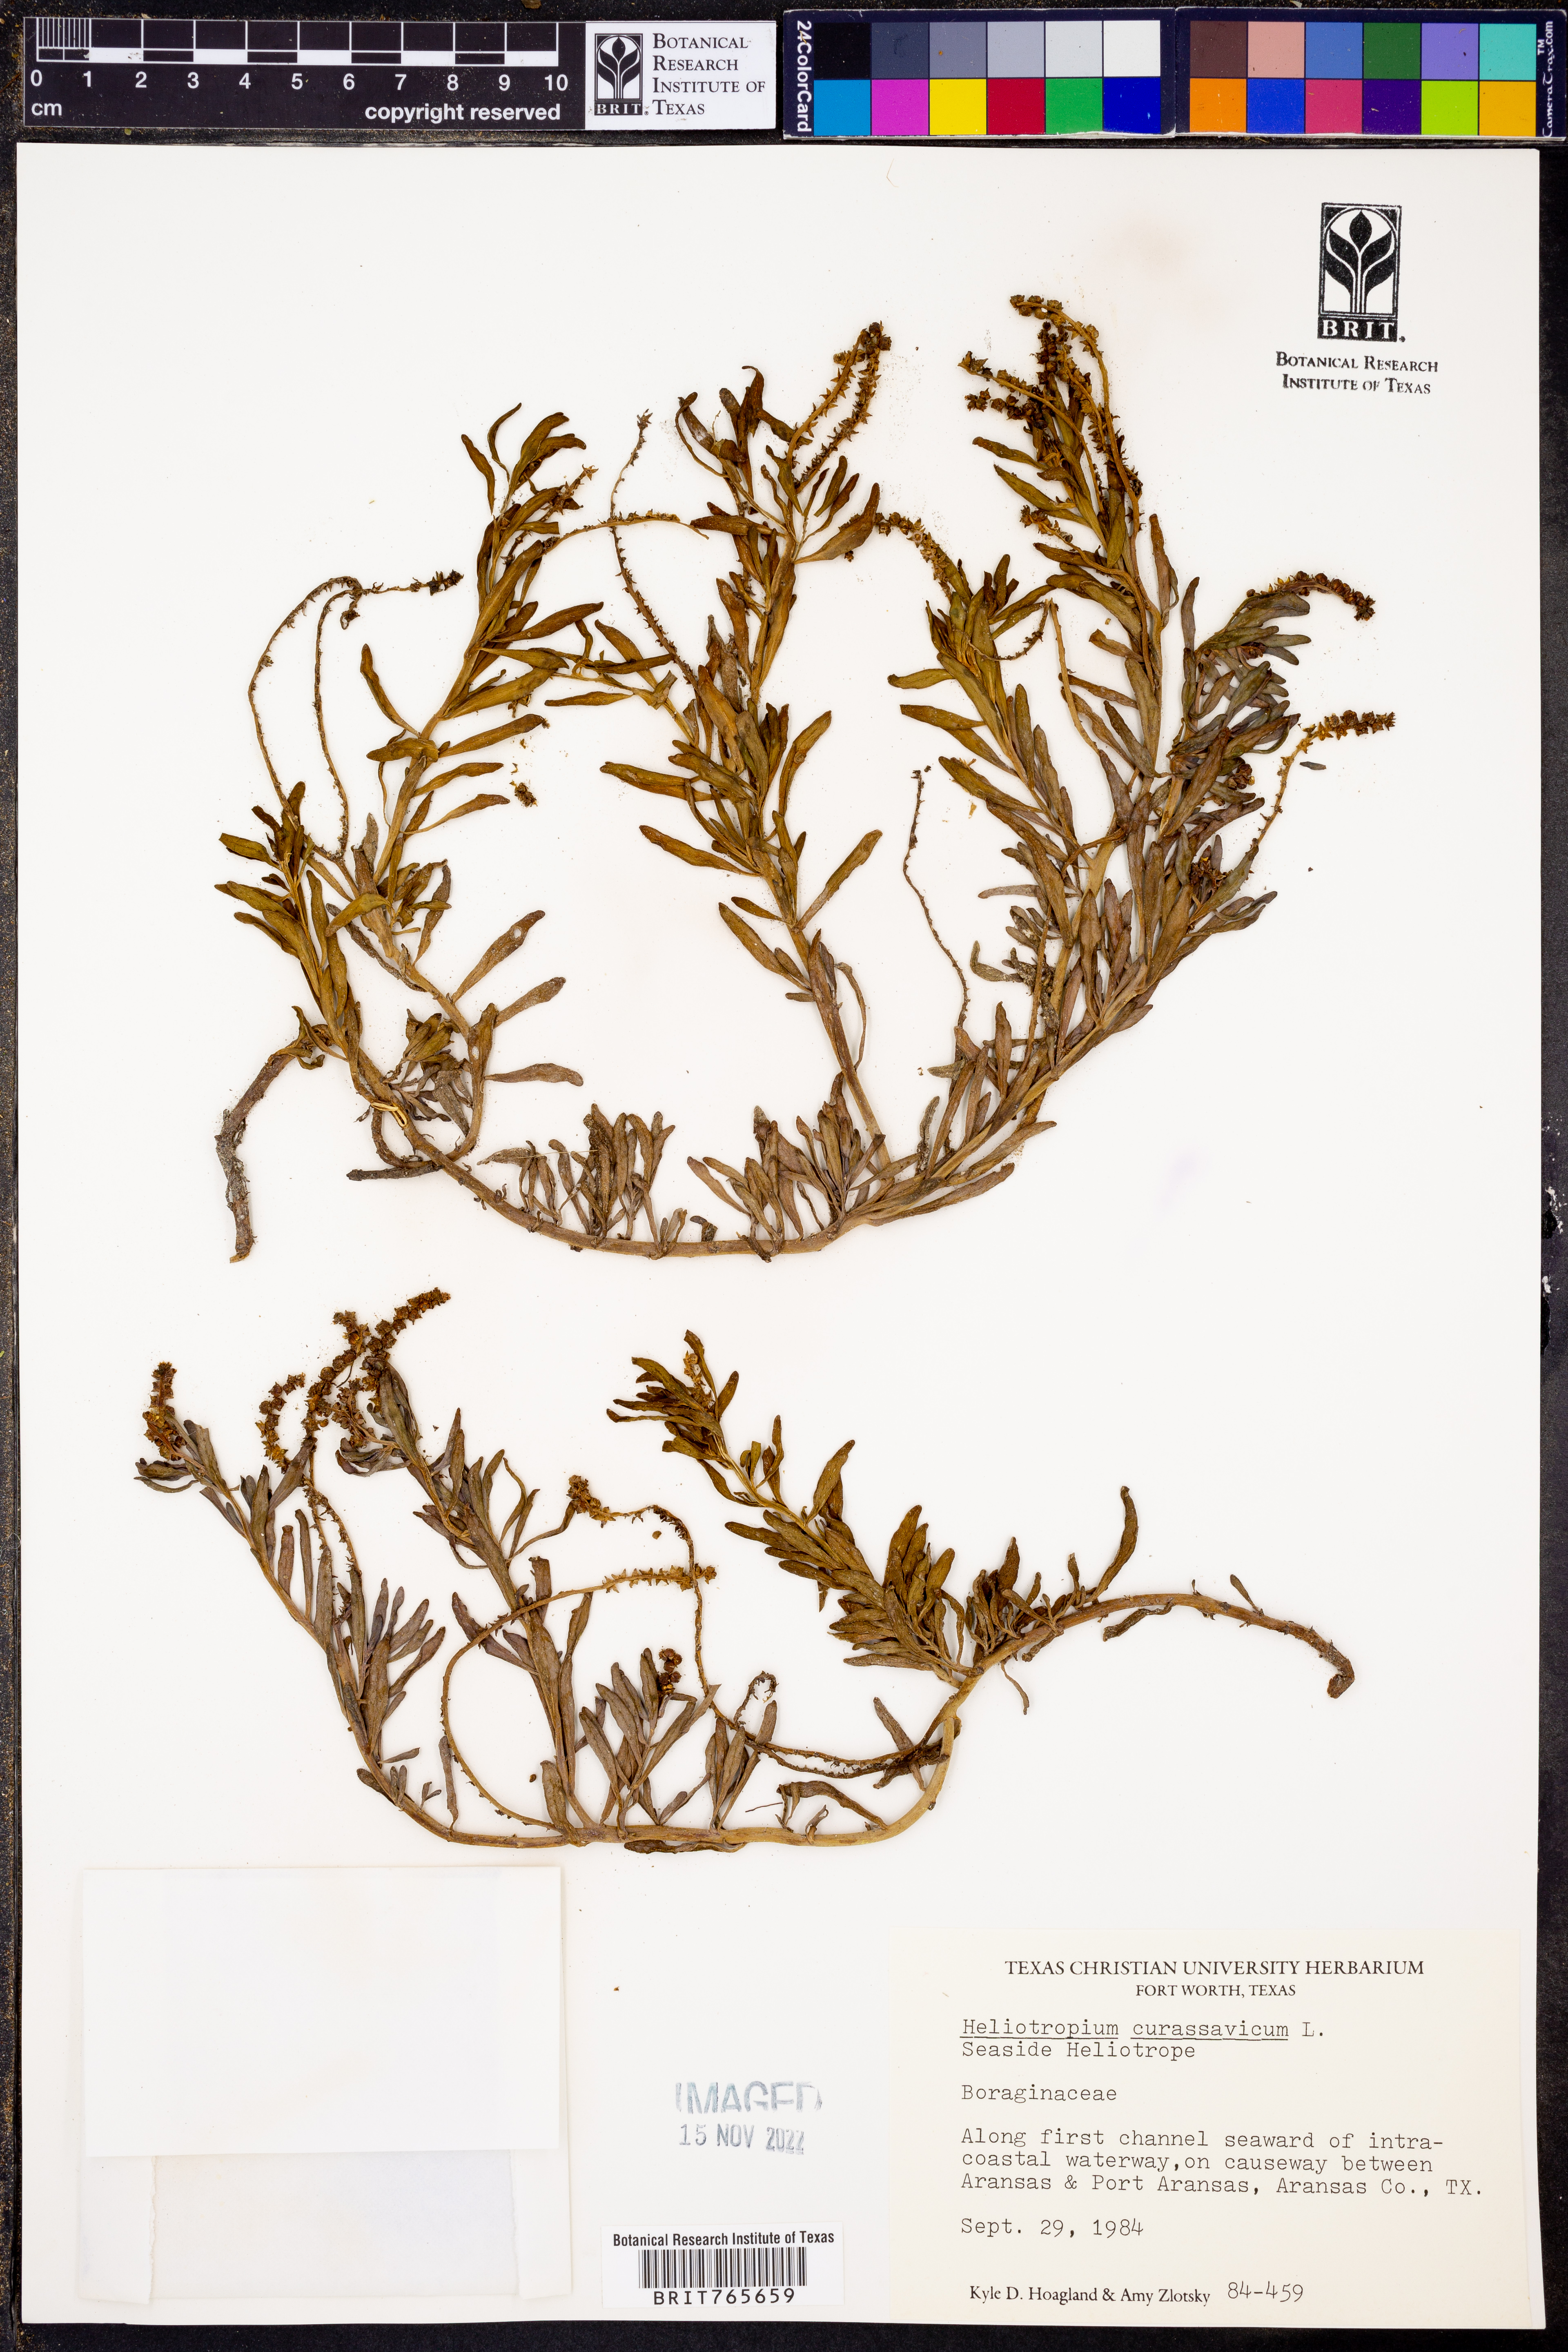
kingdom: Plantae
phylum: Tracheophyta
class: Magnoliopsida
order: Boraginales
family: Heliotropiaceae
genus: Heliotropium
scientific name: Heliotropium curassavicum
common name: Seaside heliotrope
